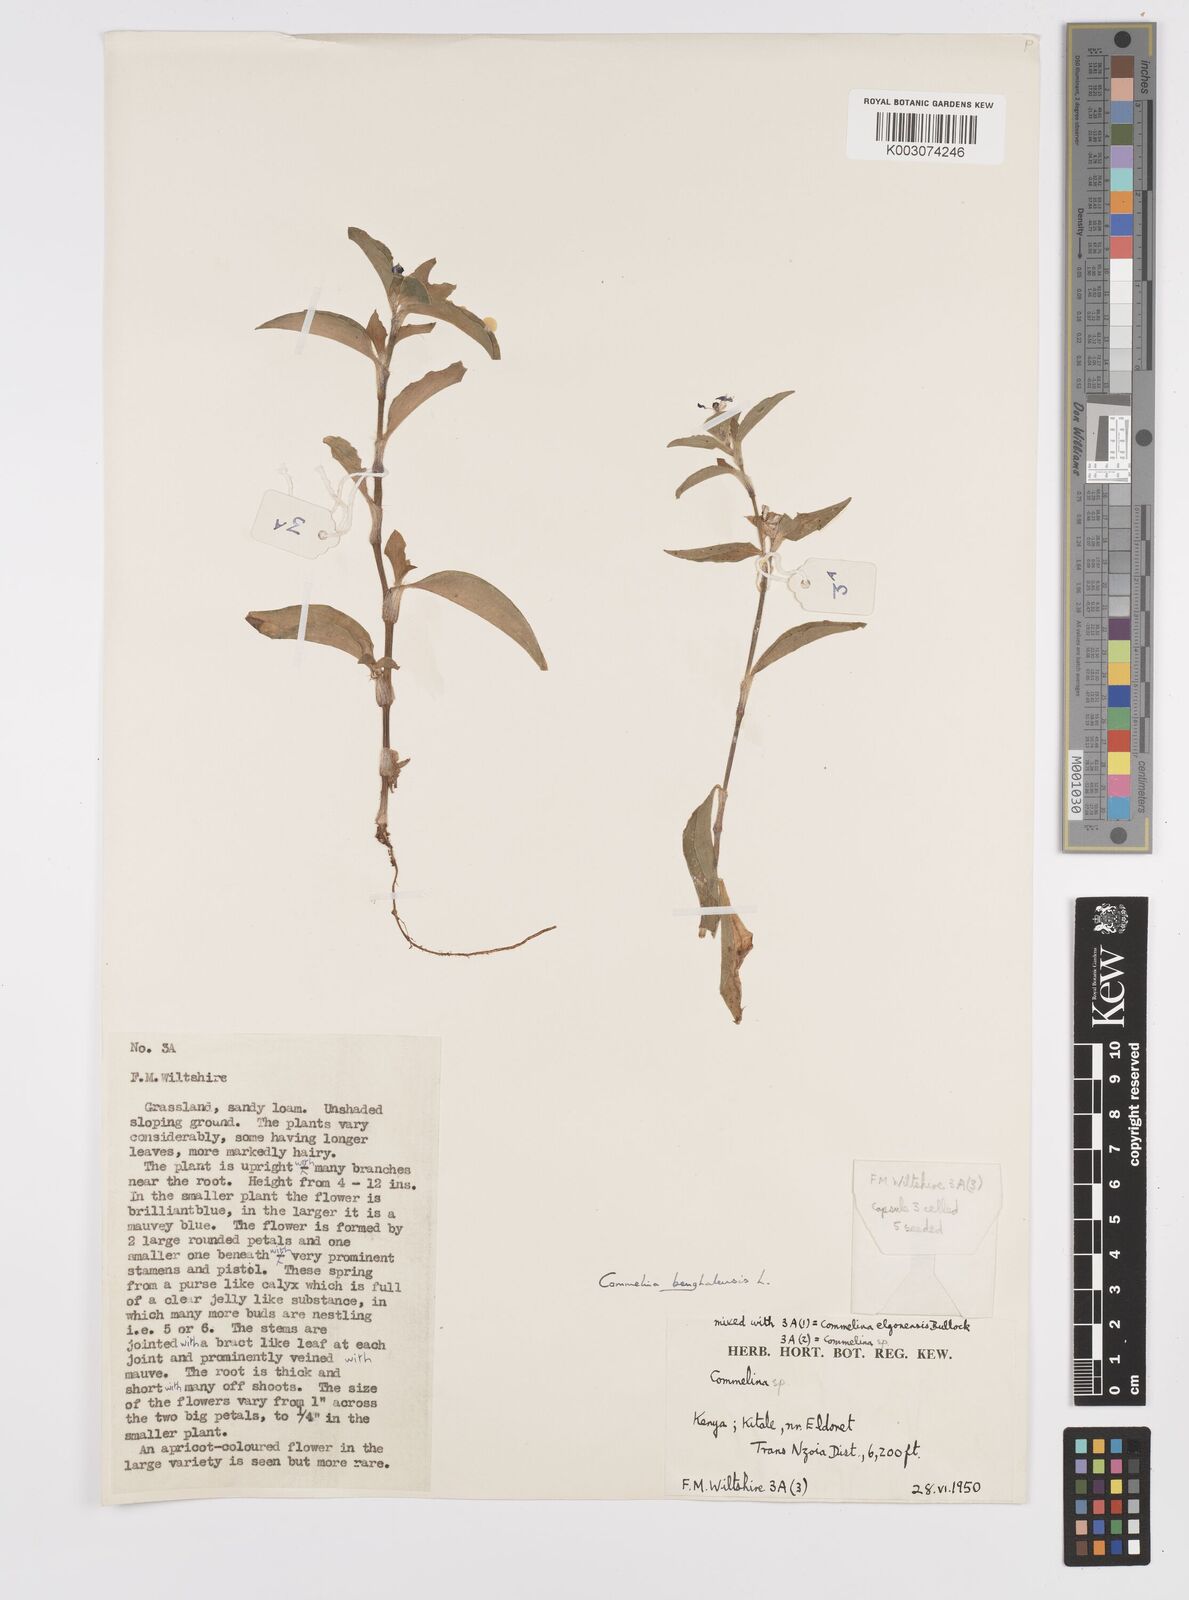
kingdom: Plantae
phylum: Tracheophyta
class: Liliopsida
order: Commelinales
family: Commelinaceae
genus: Commelina
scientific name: Commelina benghalensis
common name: Jio
